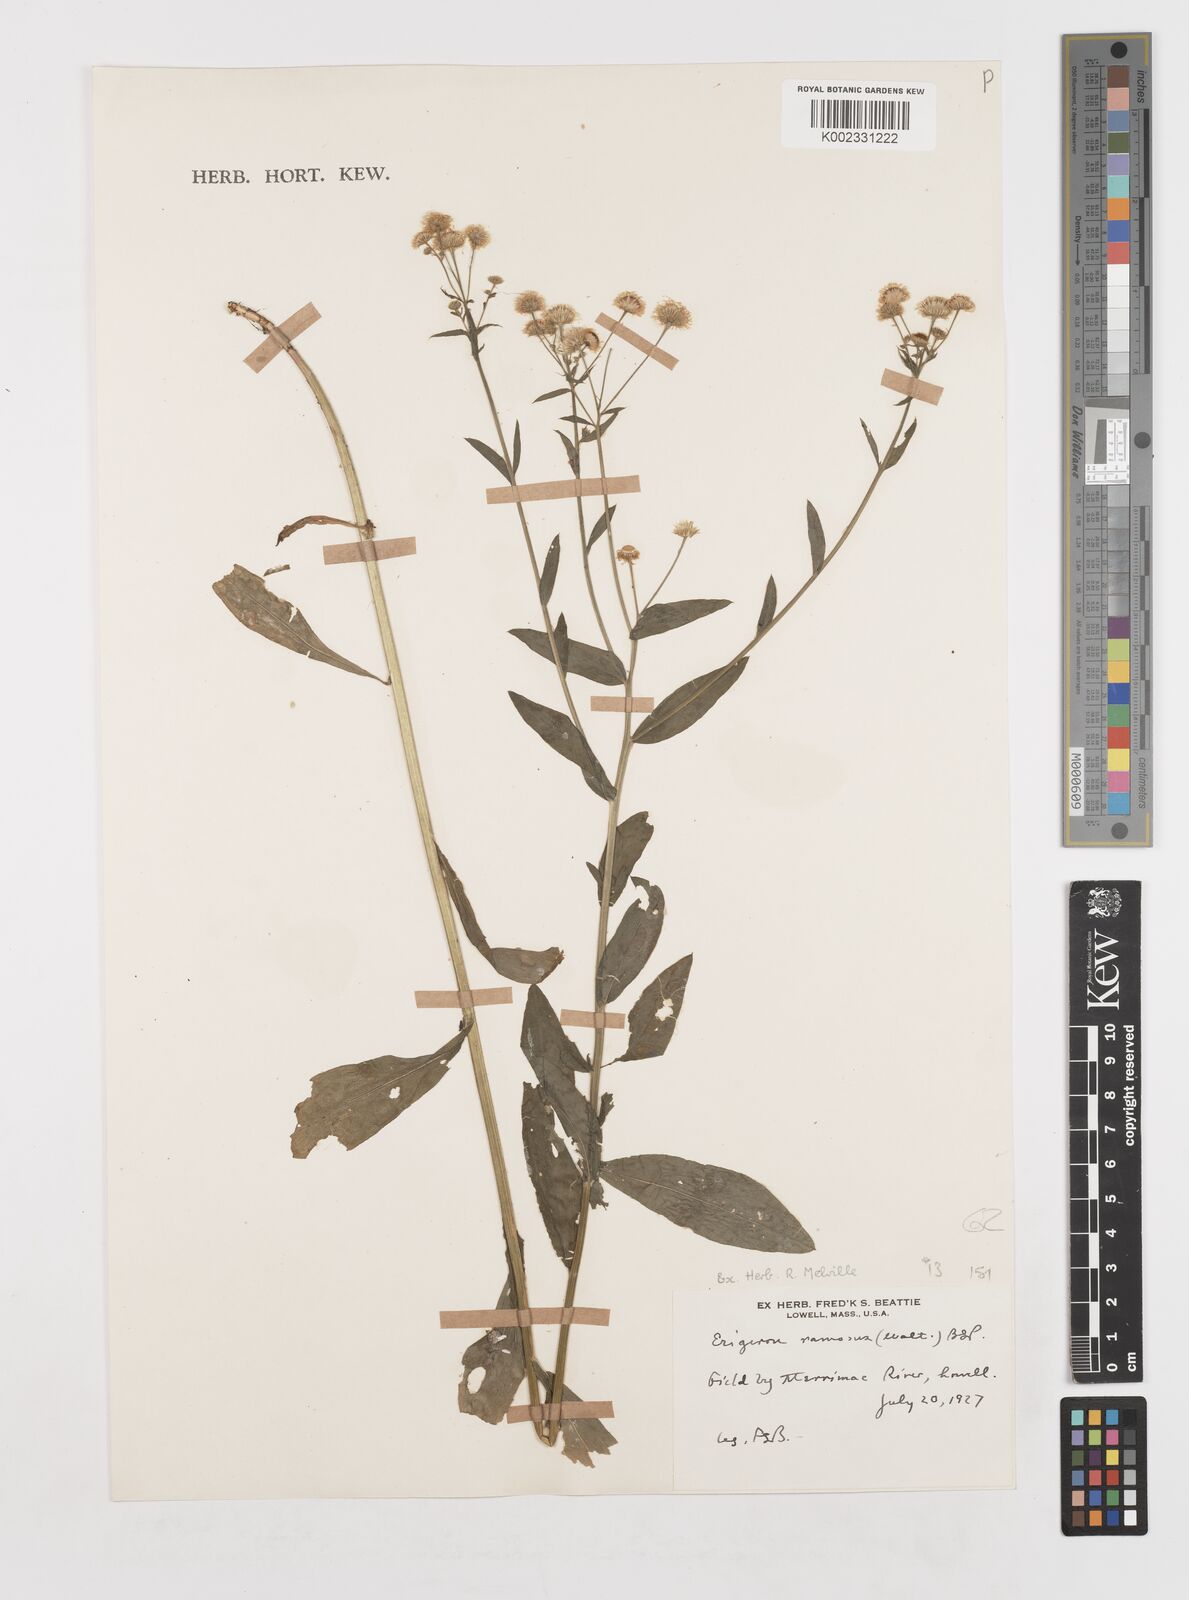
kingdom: Plantae
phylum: Tracheophyta
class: Magnoliopsida
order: Asterales
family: Asteraceae
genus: Erigeron
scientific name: Erigeron strigosus
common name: Common eastern fleabane
